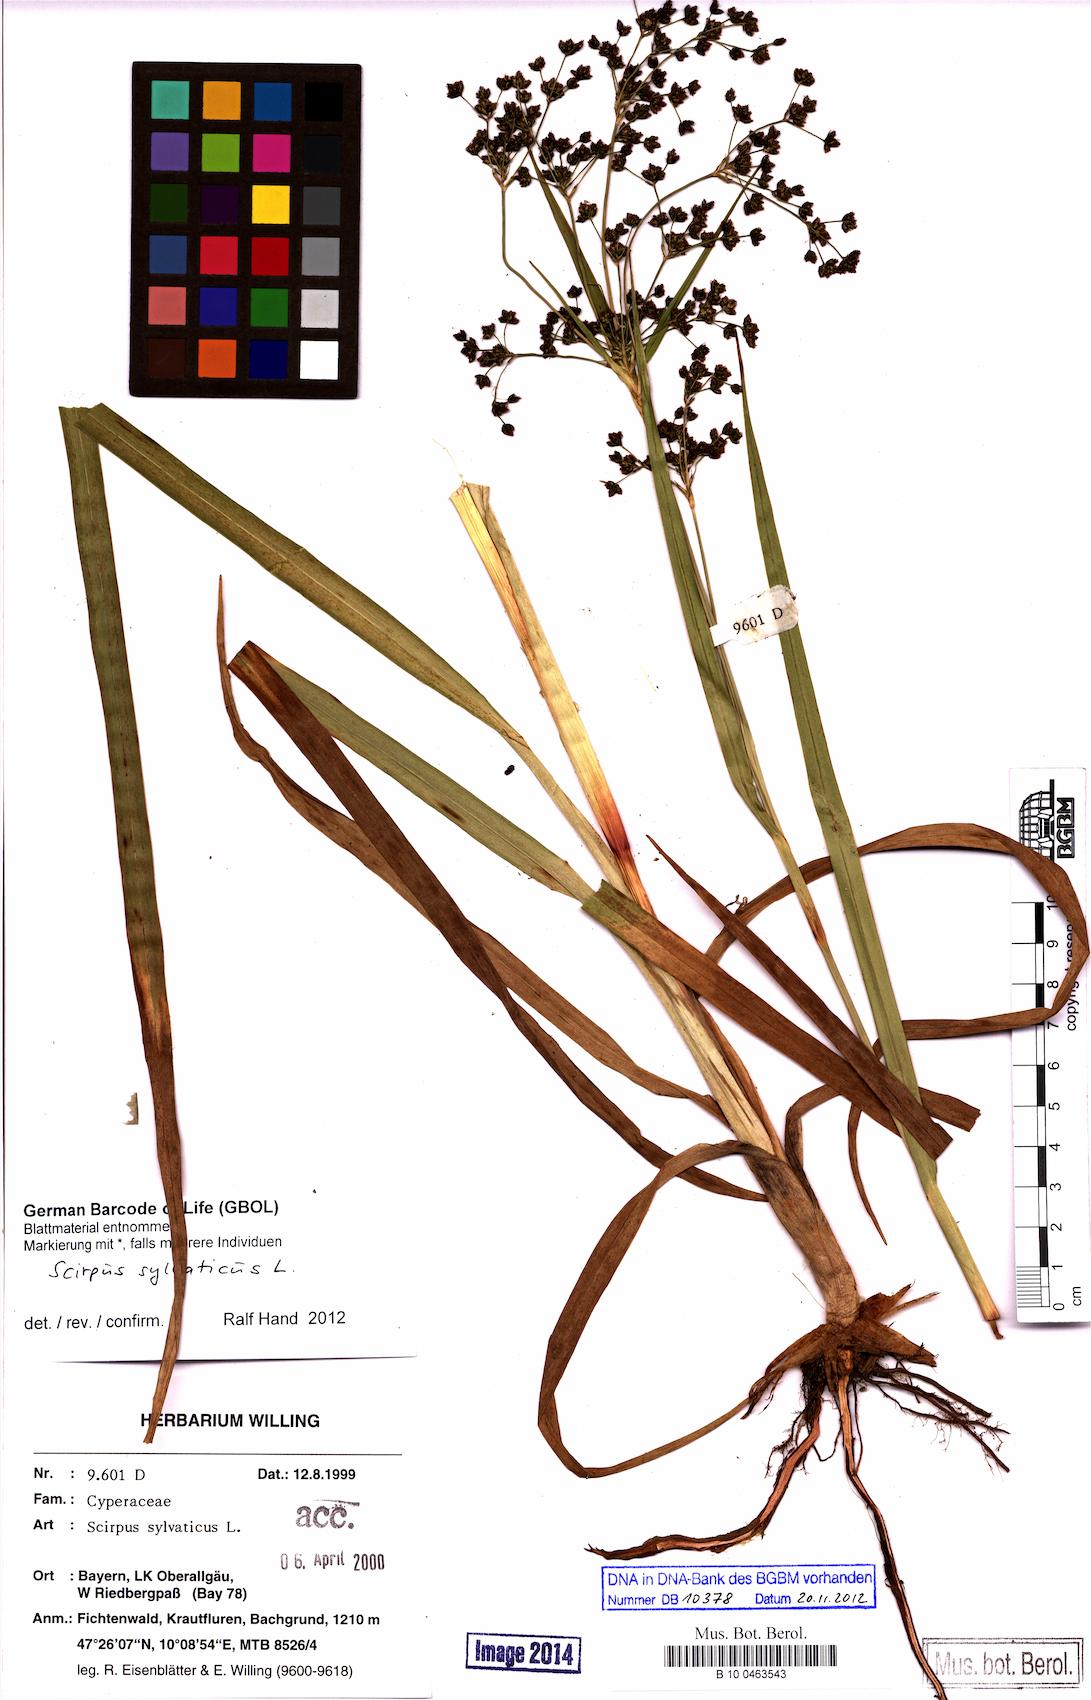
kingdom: Plantae
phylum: Tracheophyta
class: Liliopsida
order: Poales
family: Cyperaceae
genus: Scirpus
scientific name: Scirpus sylvaticus
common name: Wood club-rush
